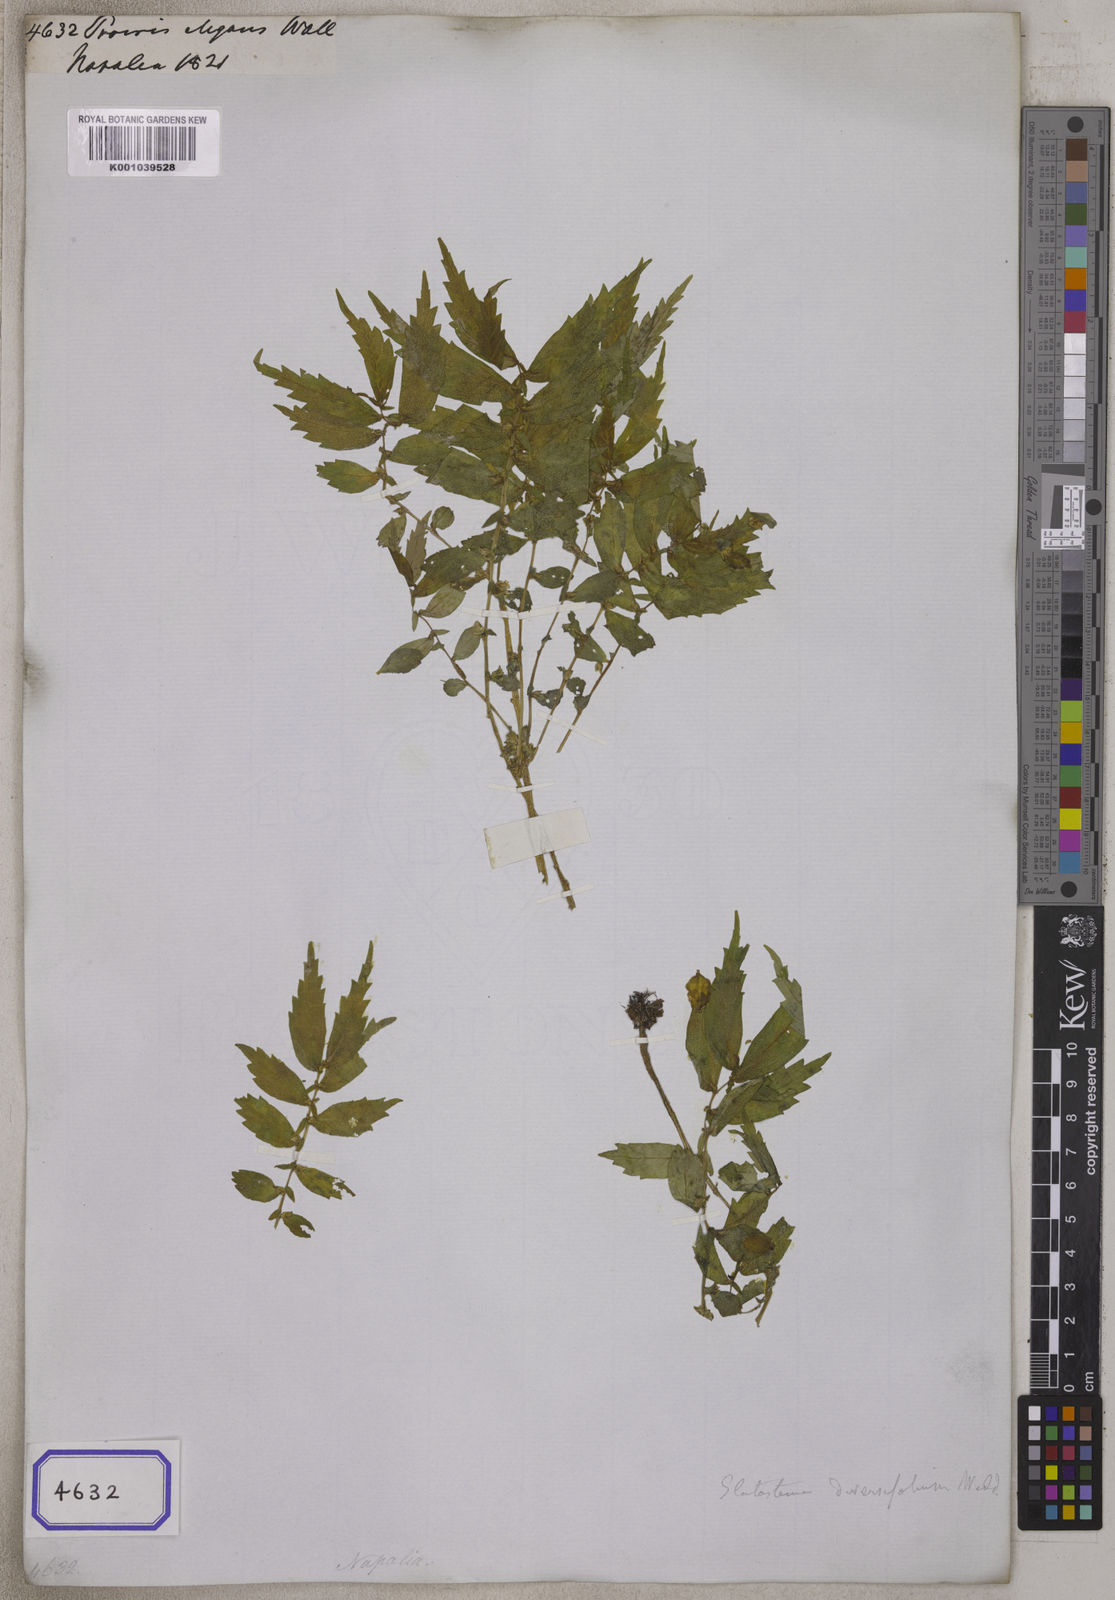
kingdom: Plantae
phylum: Tracheophyta
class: Magnoliopsida
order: Rosales
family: Urticaceae
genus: Elatostema
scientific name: Elatostema monandrum
